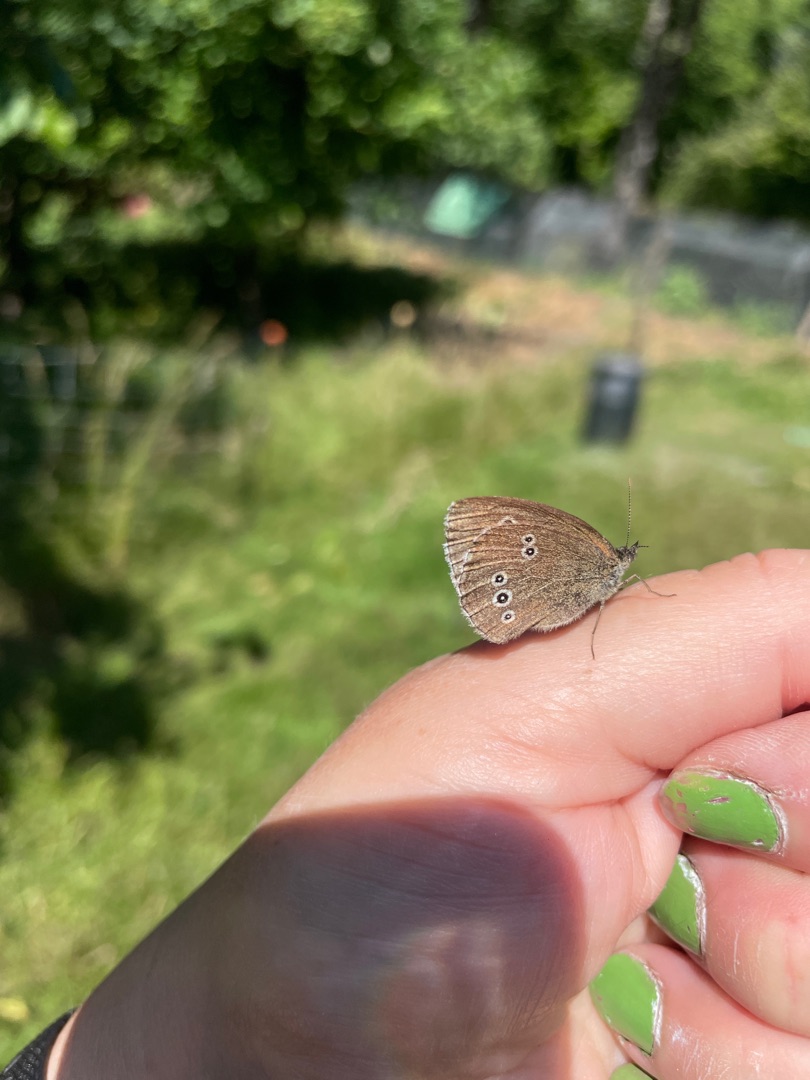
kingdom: Animalia
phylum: Arthropoda
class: Insecta
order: Lepidoptera
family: Nymphalidae
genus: Aphantopus
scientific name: Aphantopus hyperantus
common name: Engrandøje
